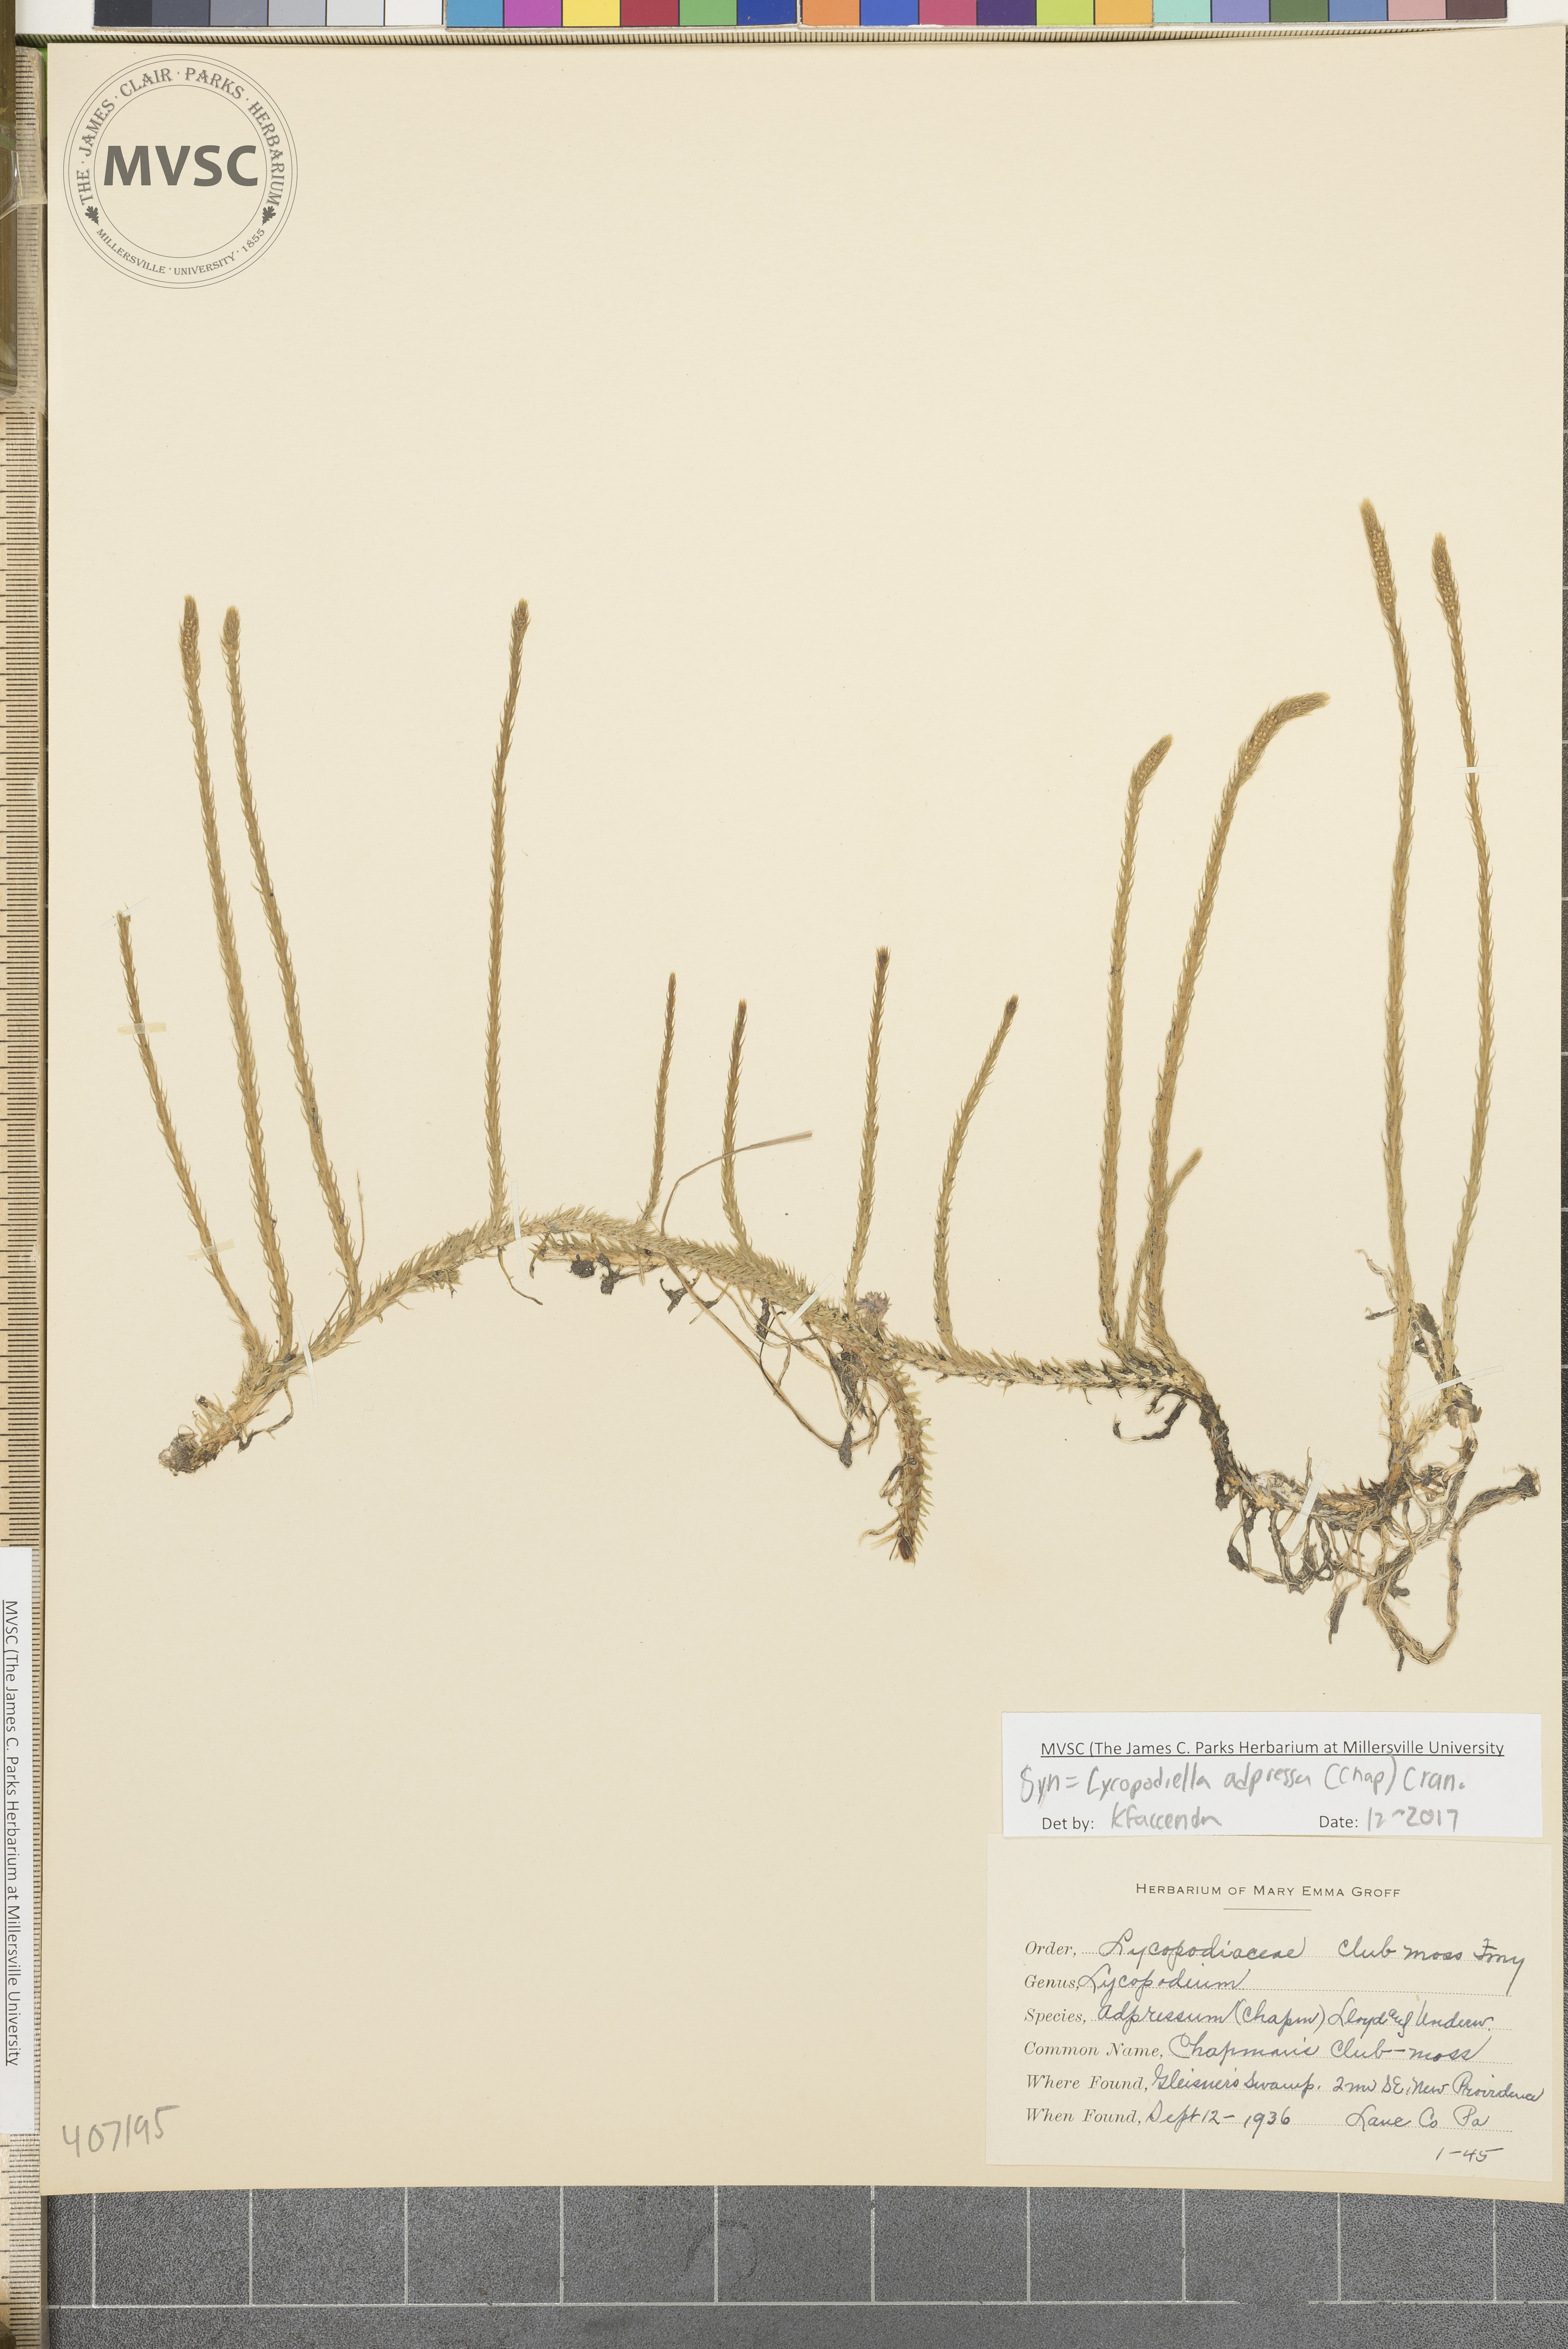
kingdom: Plantae
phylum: Tracheophyta
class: Lycopodiopsida
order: Lycopodiales
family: Lycopodiaceae
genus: Lycopodiella
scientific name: Lycopodiella appressa
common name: southern bog clubmoss
